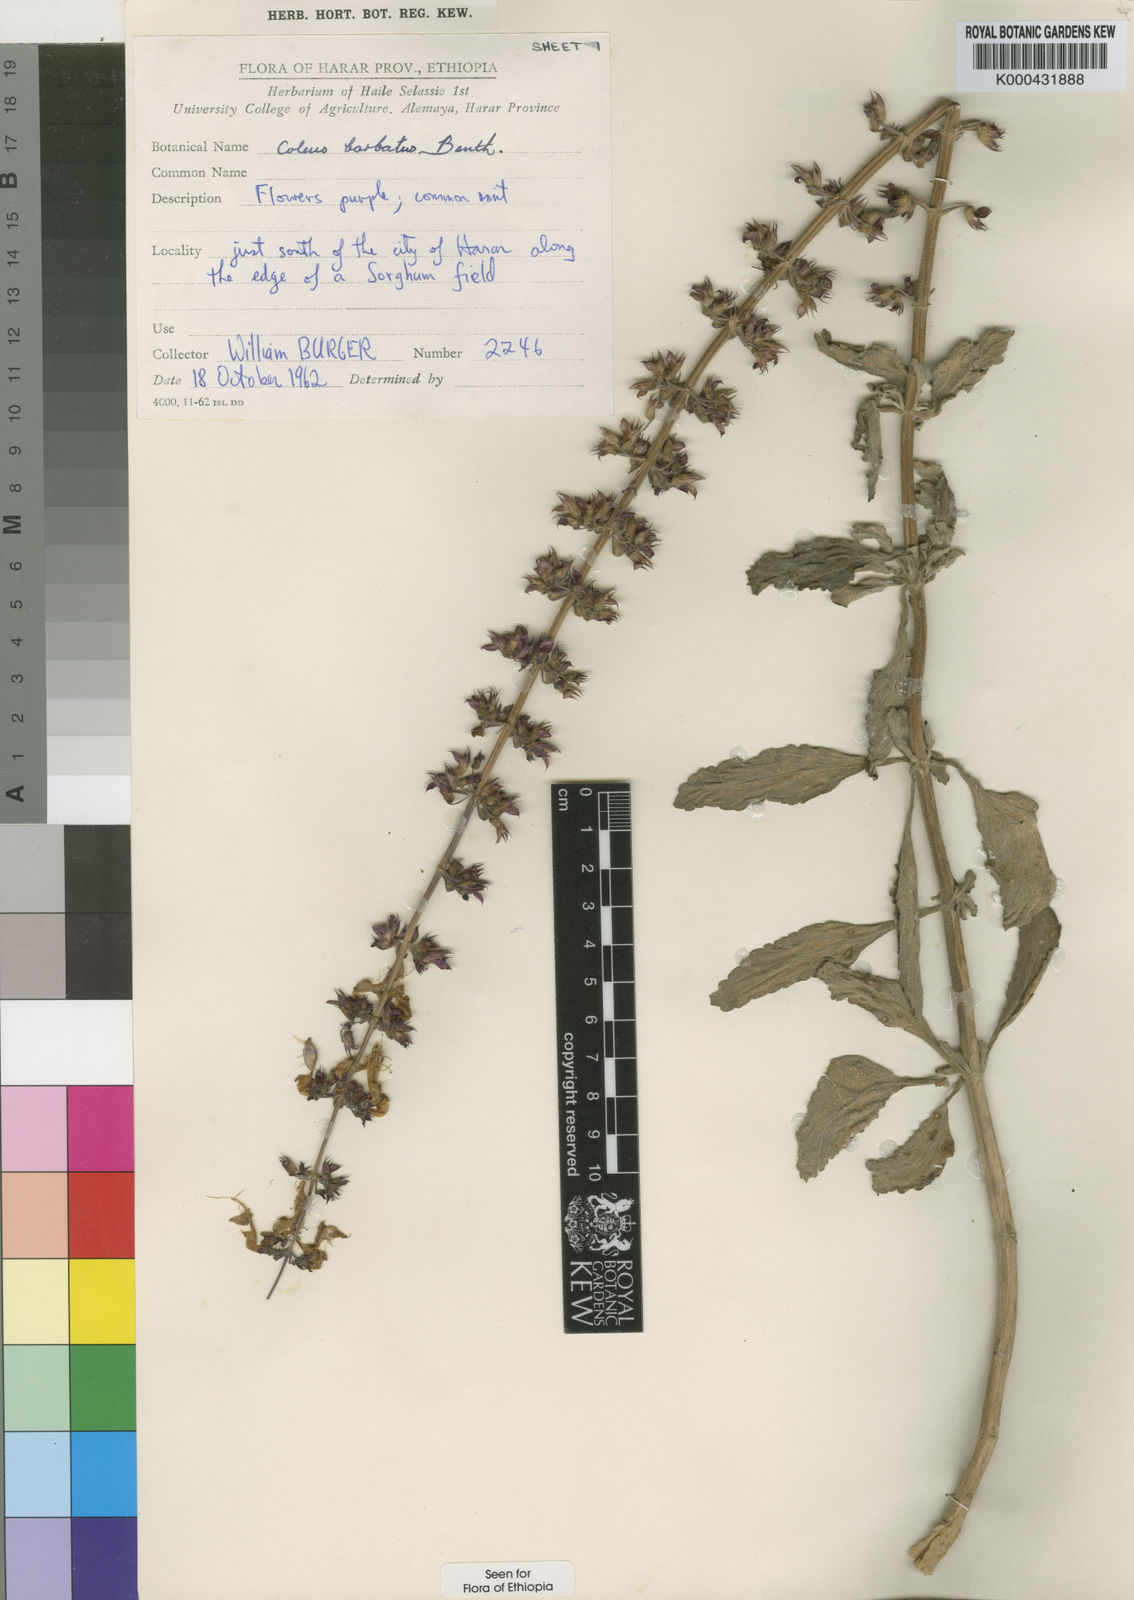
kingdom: Plantae
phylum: Tracheophyta
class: Magnoliopsida
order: Lamiales
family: Lamiaceae
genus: Coleus
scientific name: Coleus barbatus
